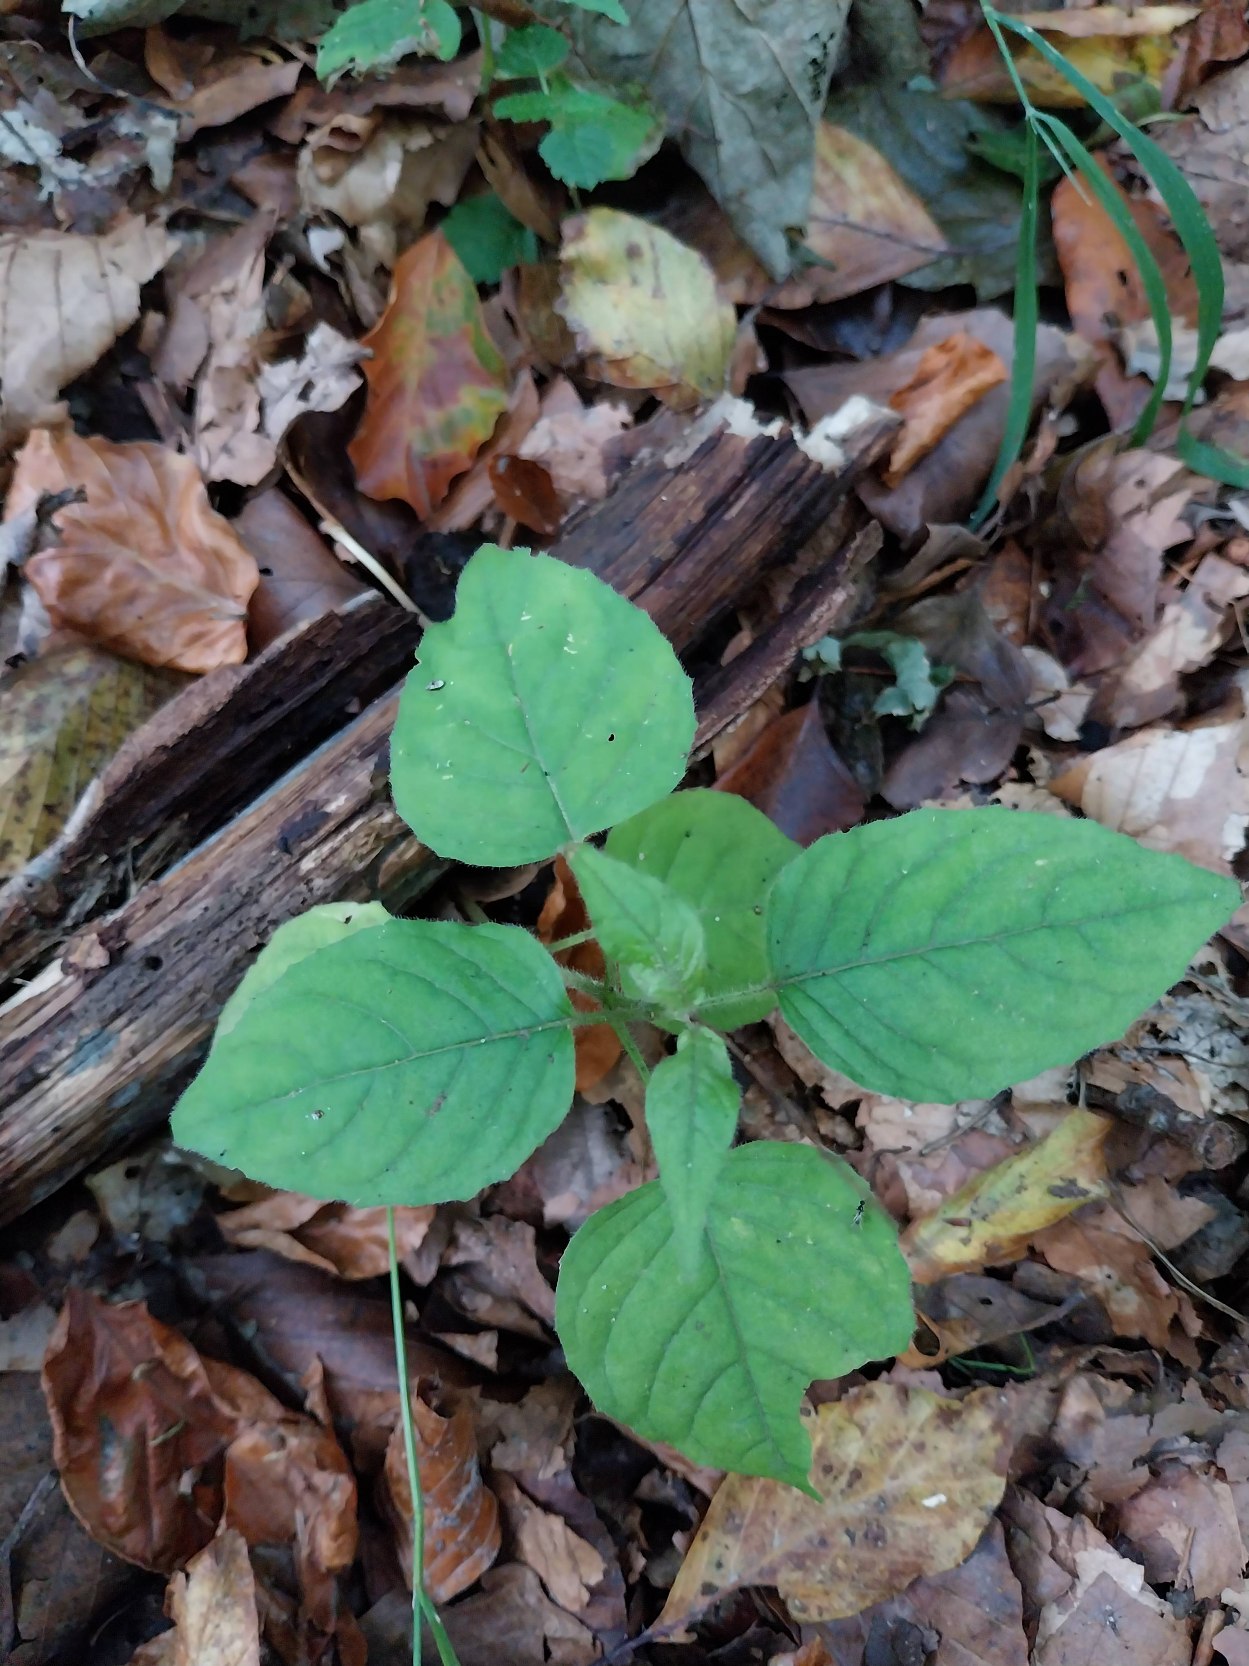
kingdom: Plantae
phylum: Tracheophyta
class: Magnoliopsida
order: Myrtales
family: Onagraceae
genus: Circaea
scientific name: Circaea lutetiana
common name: Dunet steffensurt
